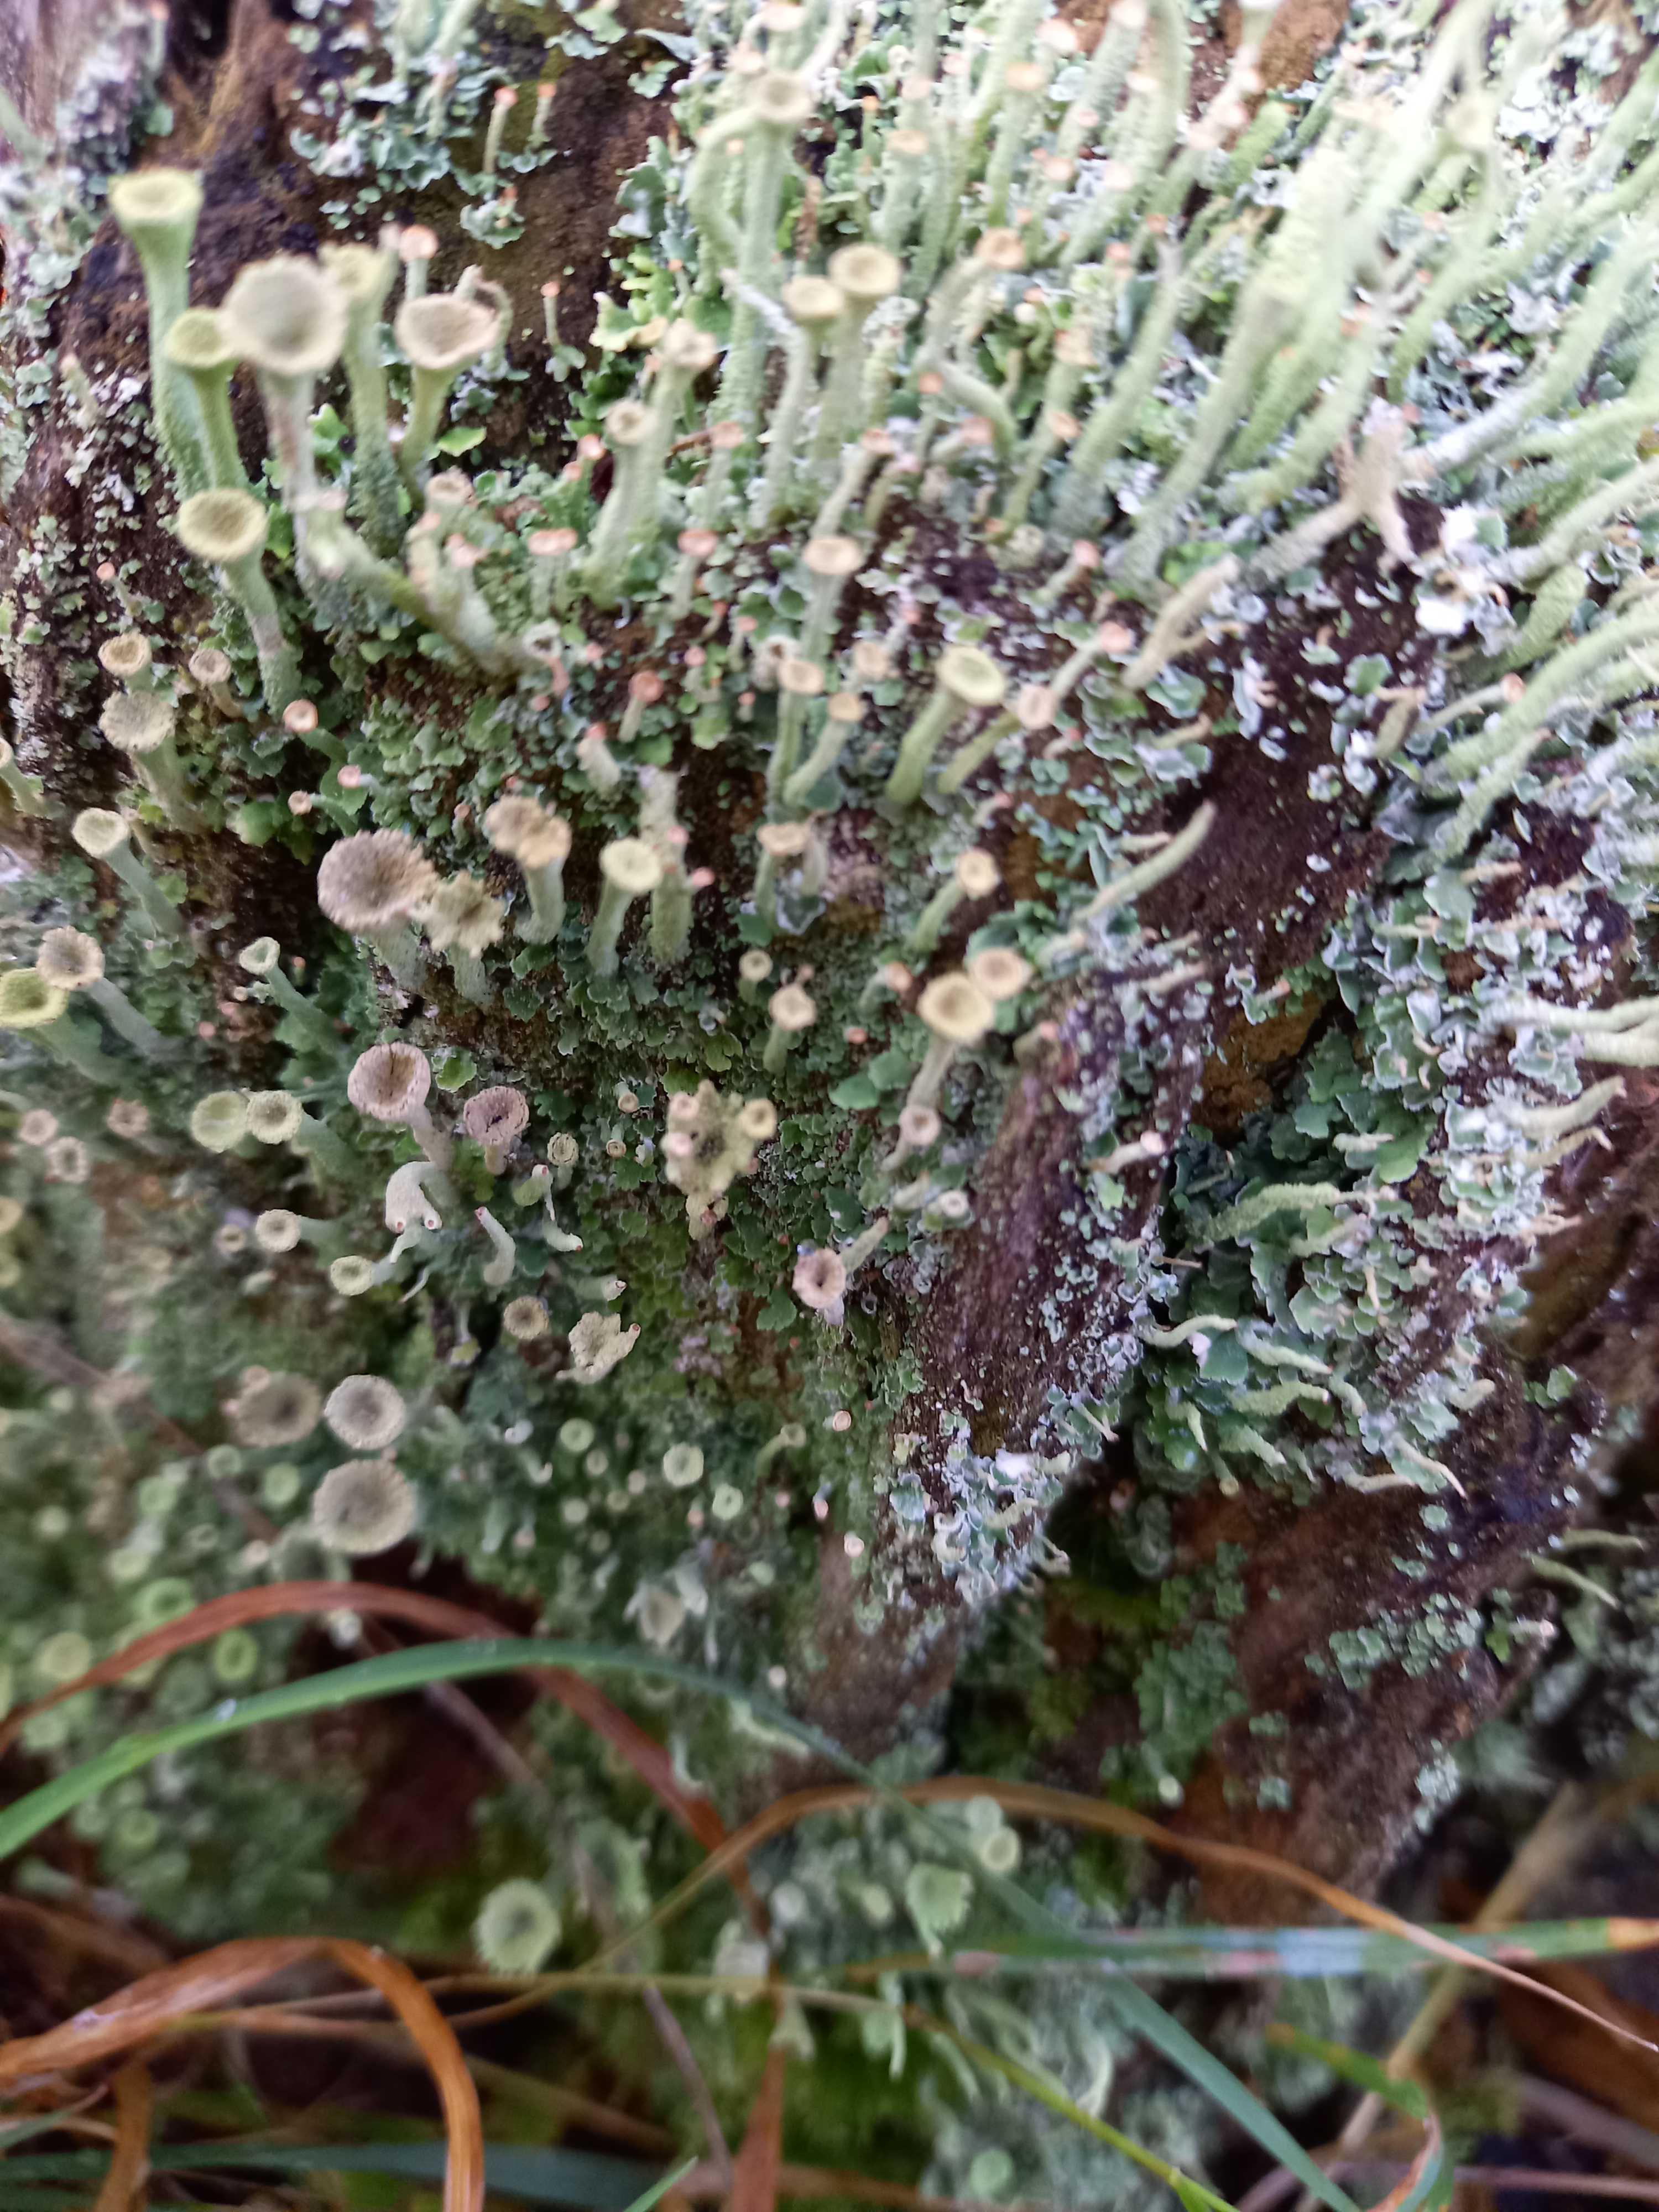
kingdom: Fungi
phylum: Ascomycota
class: Lecanoromycetes
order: Lecanorales
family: Cladoniaceae
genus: Cladonia
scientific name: Cladonia
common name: brungrøn bægerlav
